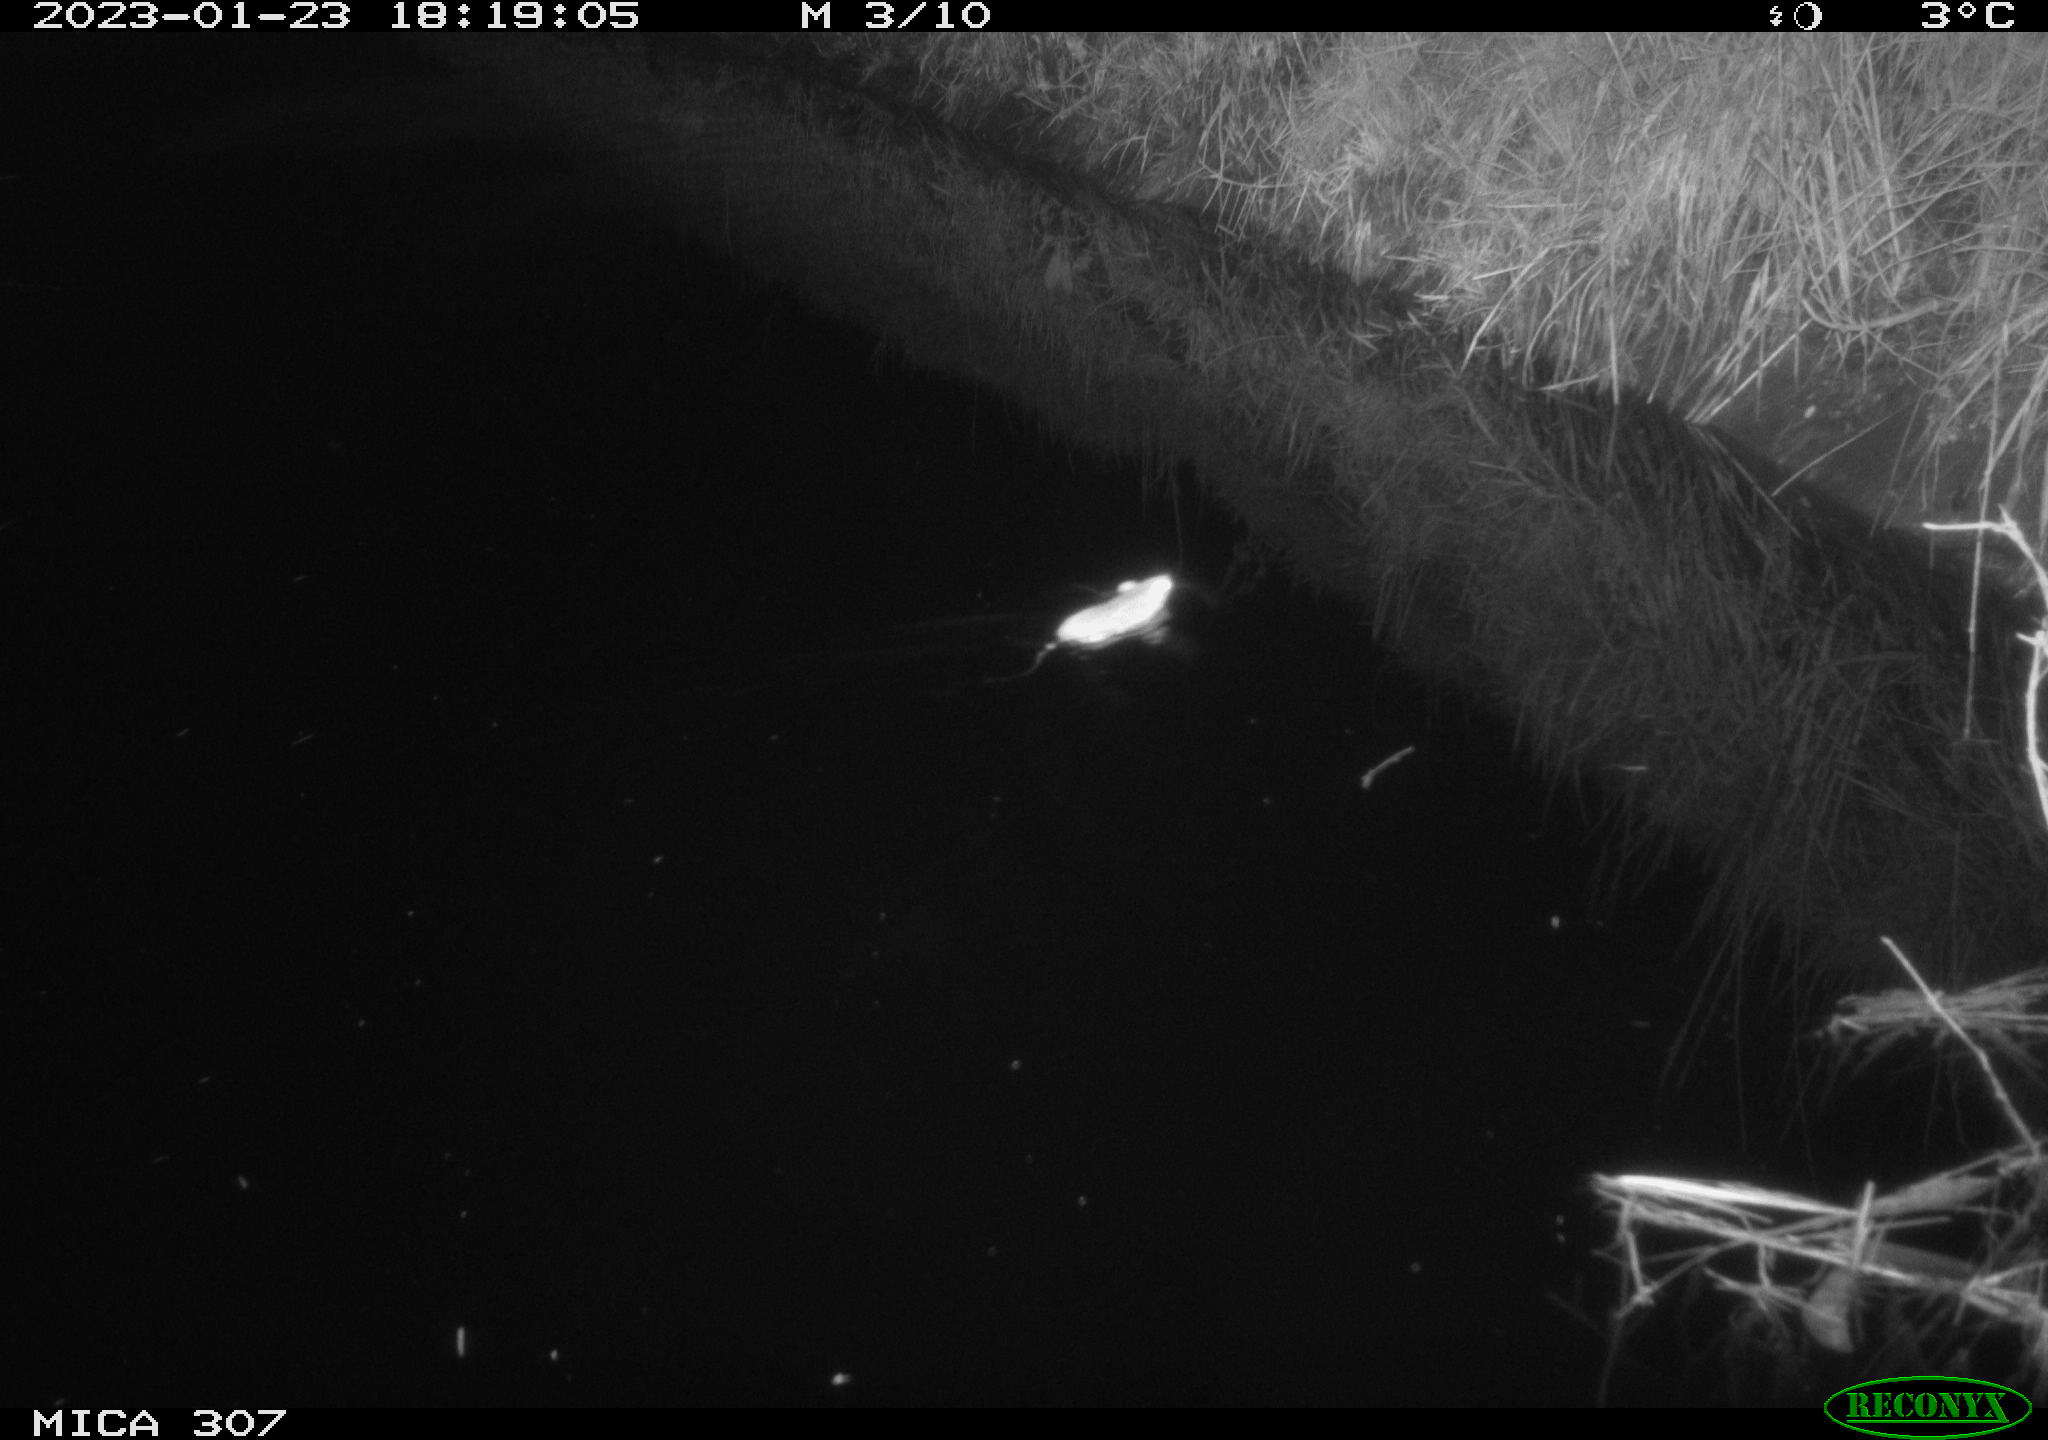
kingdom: Animalia
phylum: Chordata
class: Mammalia
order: Rodentia
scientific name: Rodentia
